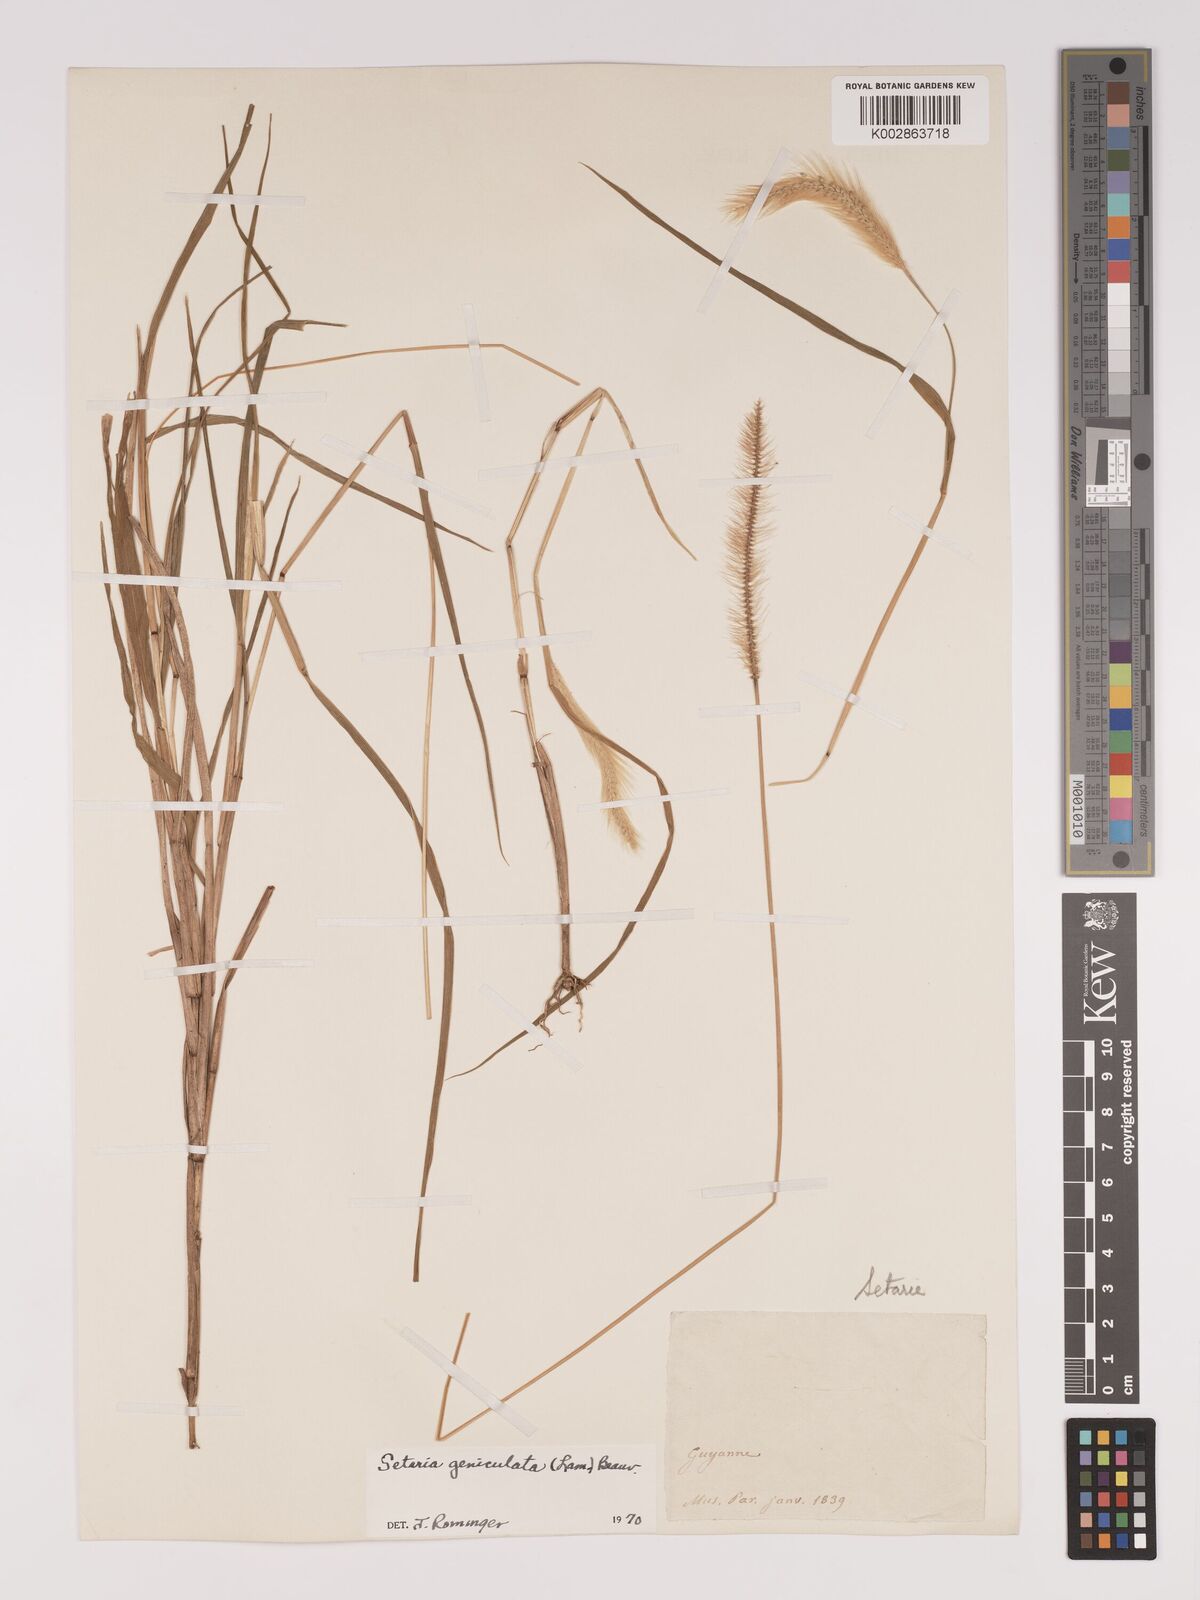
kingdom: Plantae
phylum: Tracheophyta
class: Liliopsida
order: Poales
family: Poaceae
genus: Setaria
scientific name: Setaria parviflora
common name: Knotroot bristle-grass
